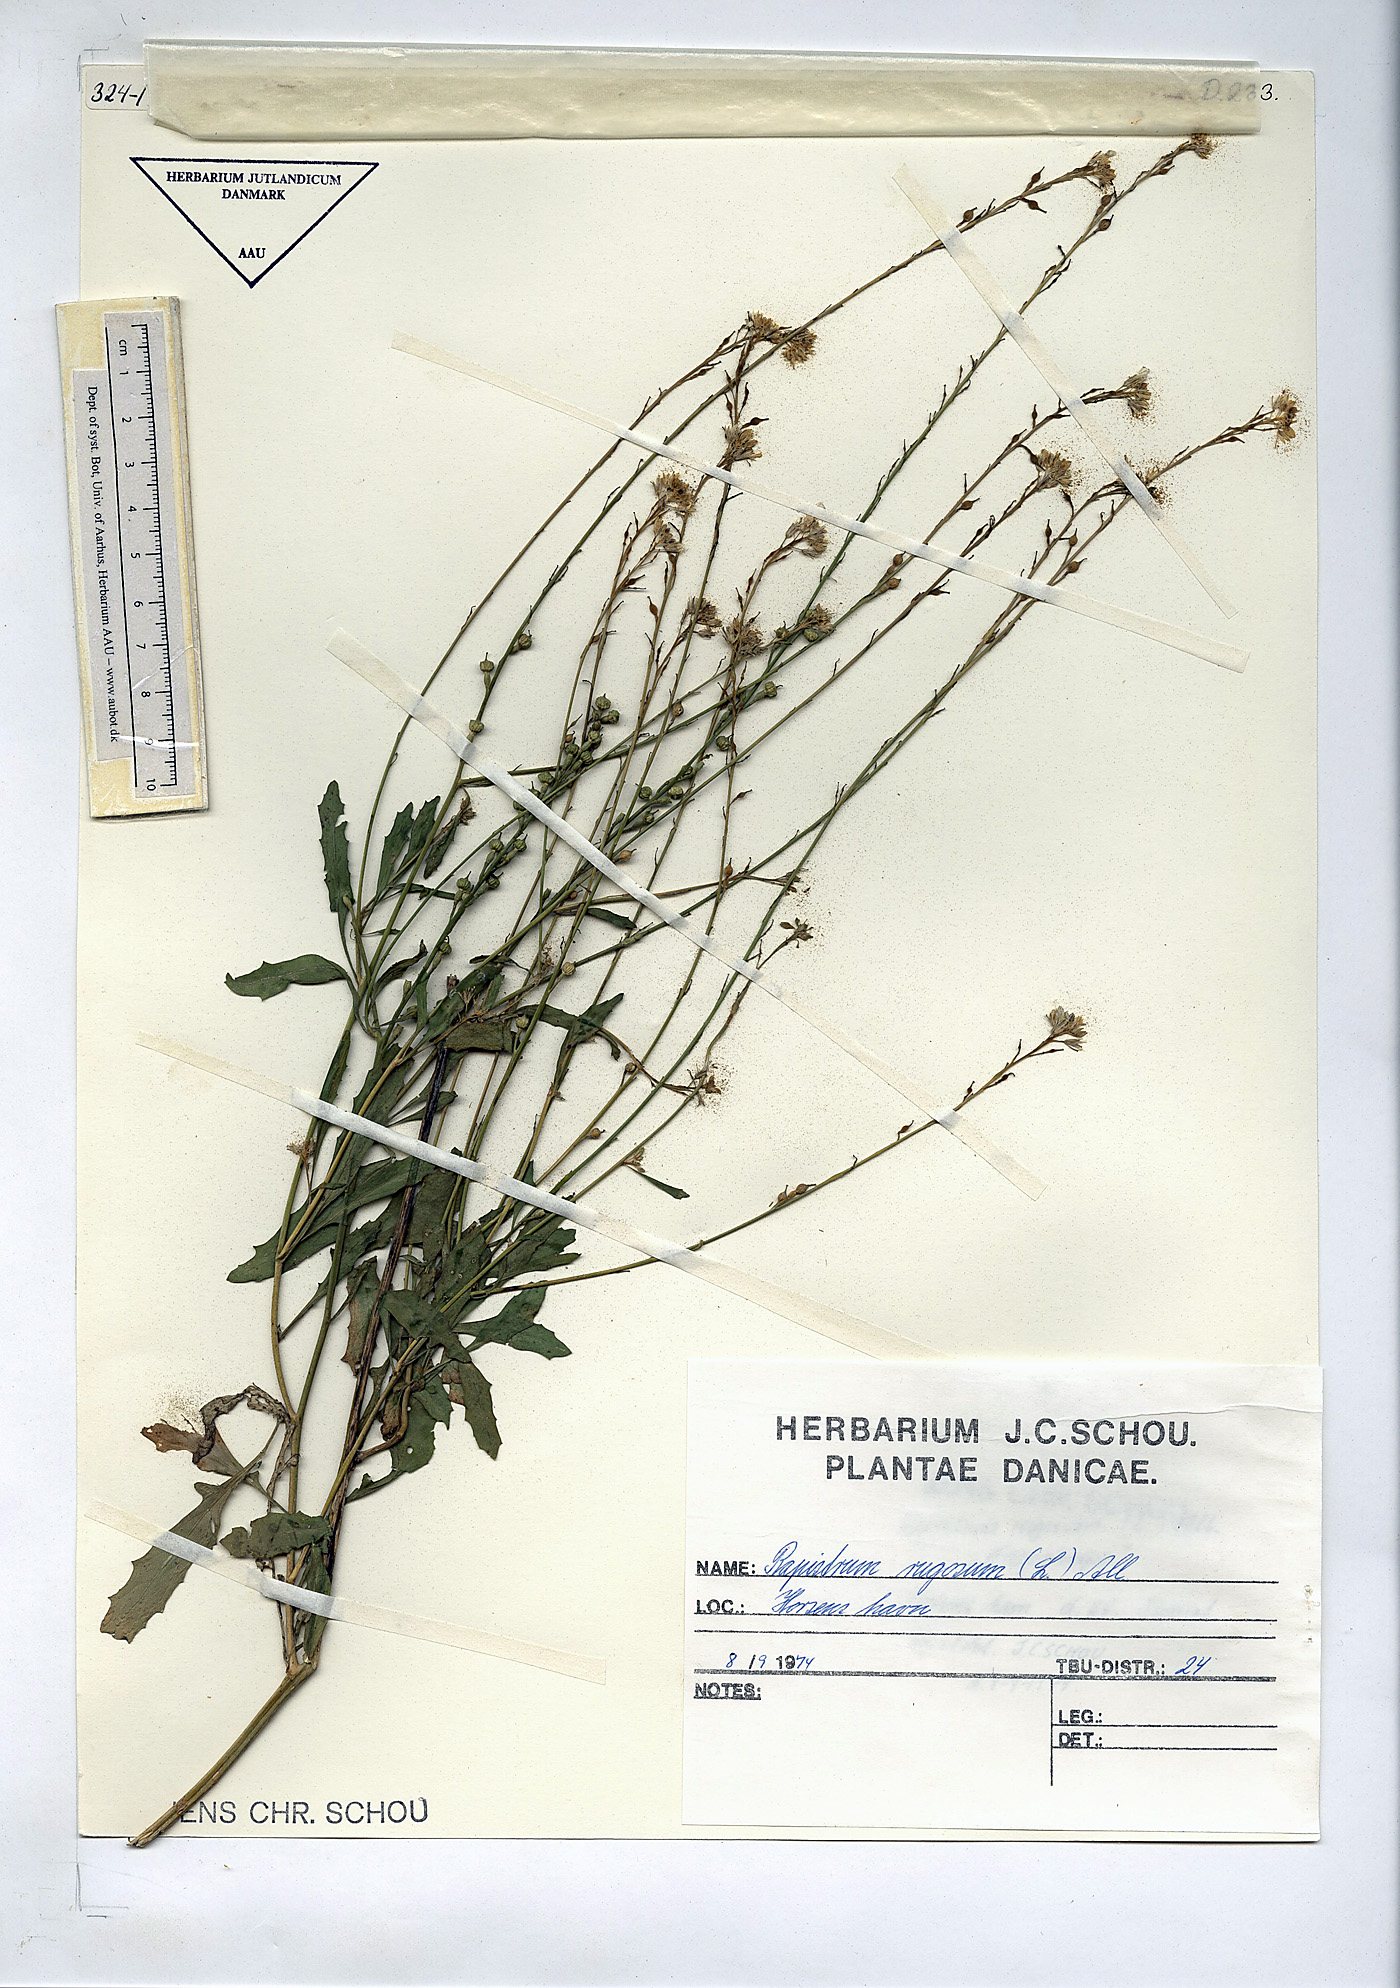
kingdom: Plantae
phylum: Tracheophyta
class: Magnoliopsida
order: Brassicales
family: Brassicaceae
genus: Rapistrum
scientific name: Rapistrum rugosum
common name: Annual bastardcabbage
